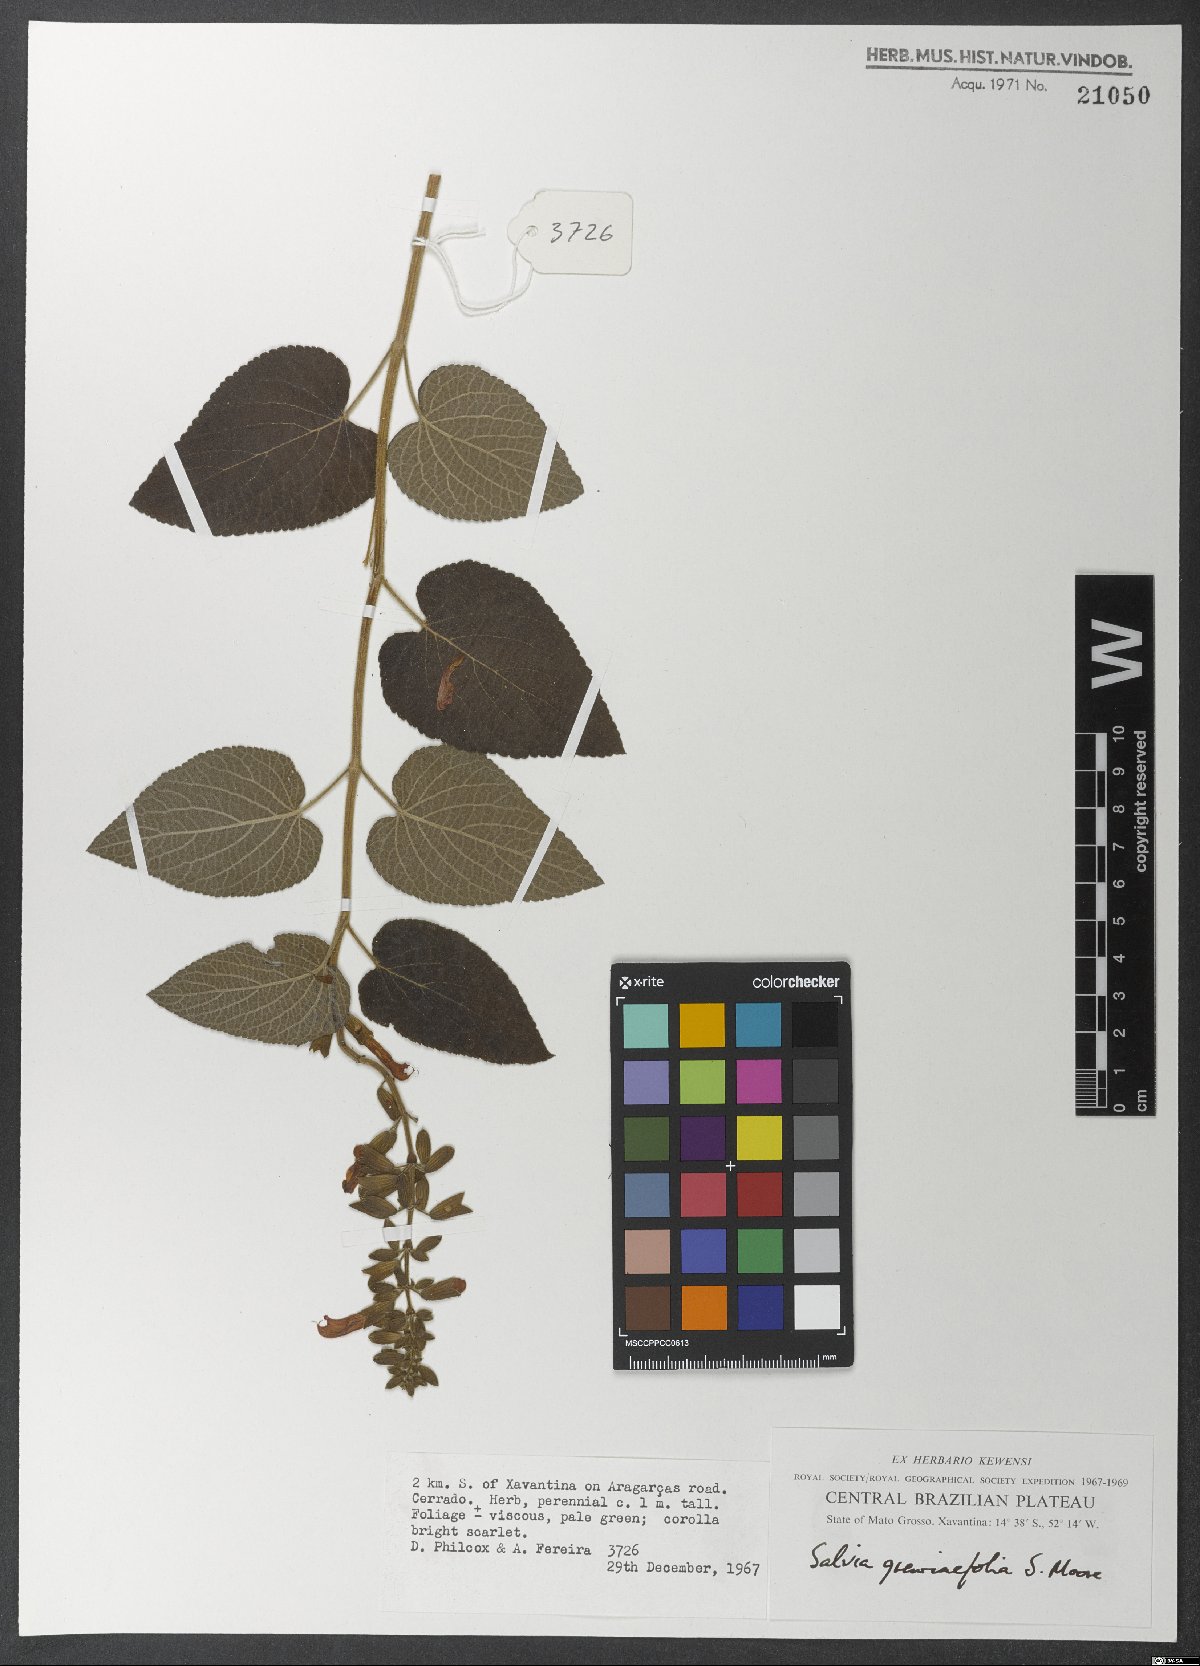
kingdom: Plantae
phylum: Tracheophyta
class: Magnoliopsida
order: Lamiales
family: Lamiaceae
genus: Salvia
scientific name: Salvia grewiifolia
